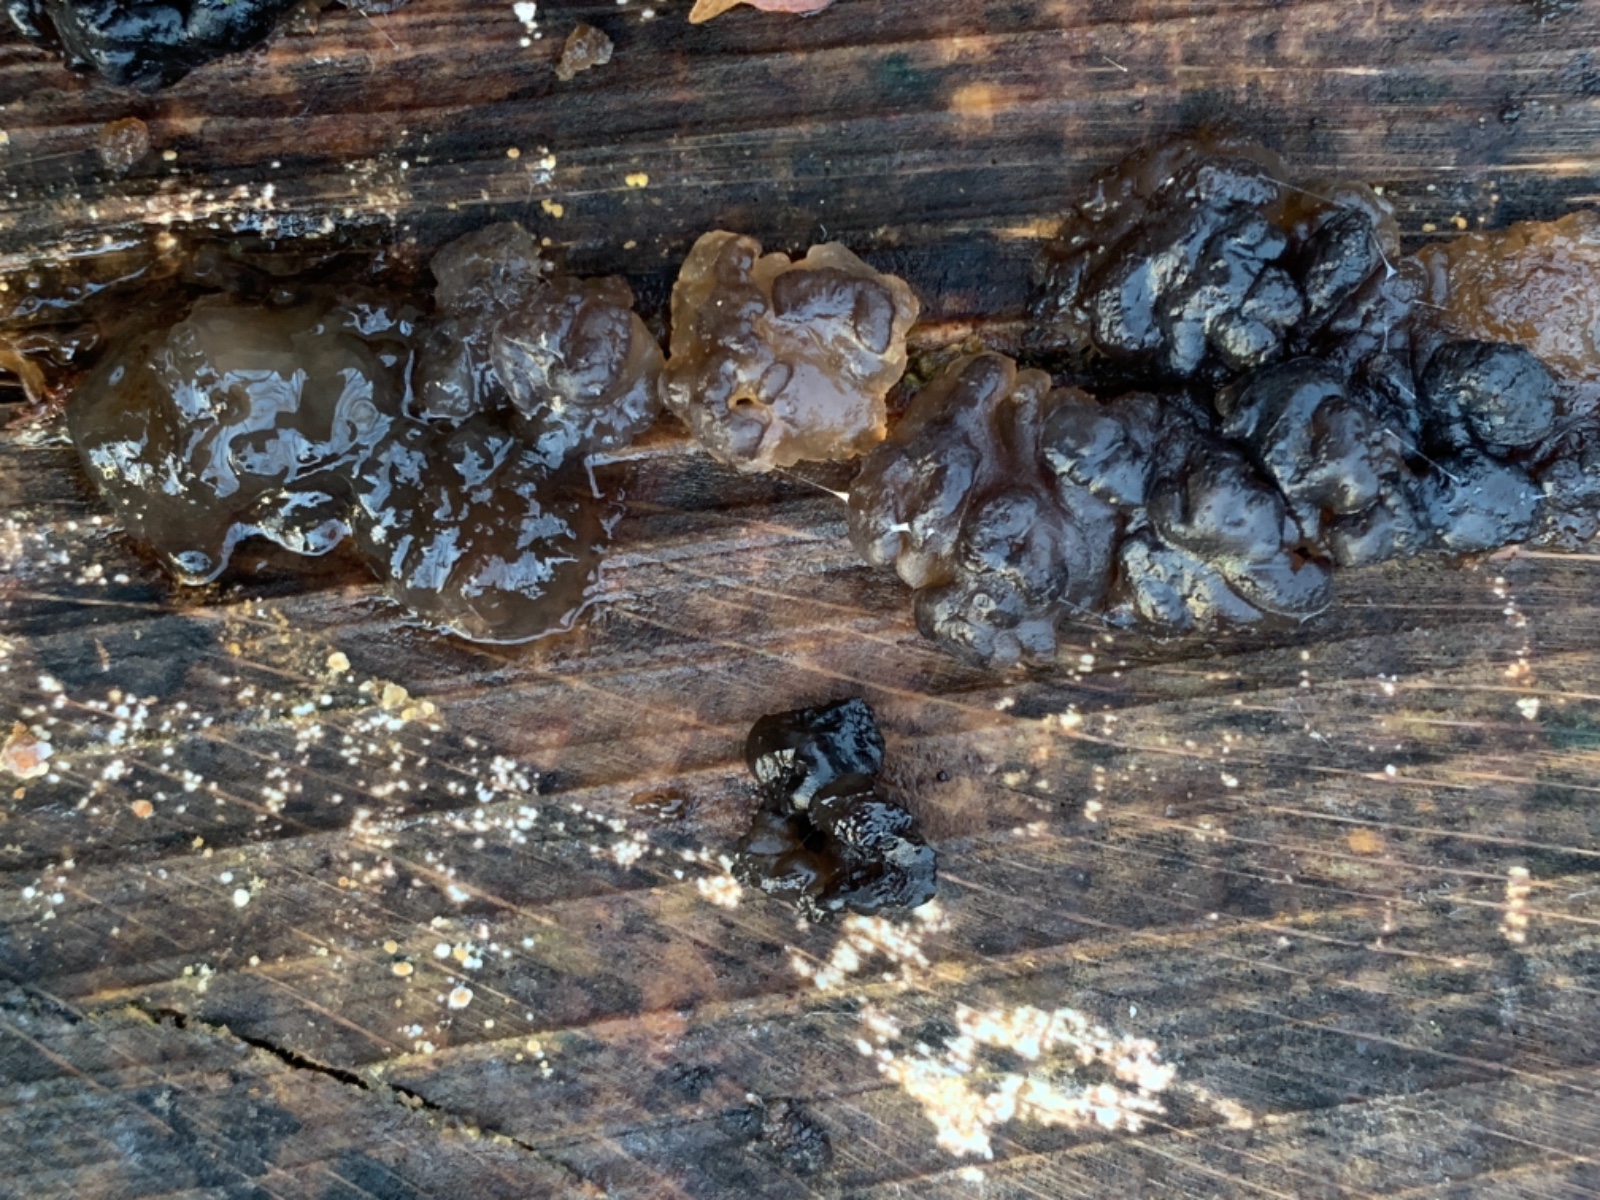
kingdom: Fungi
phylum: Basidiomycota
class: Agaricomycetes
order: Auriculariales
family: Auriculariaceae
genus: Exidia
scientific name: Exidia nigricans
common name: almindelig bævretop
